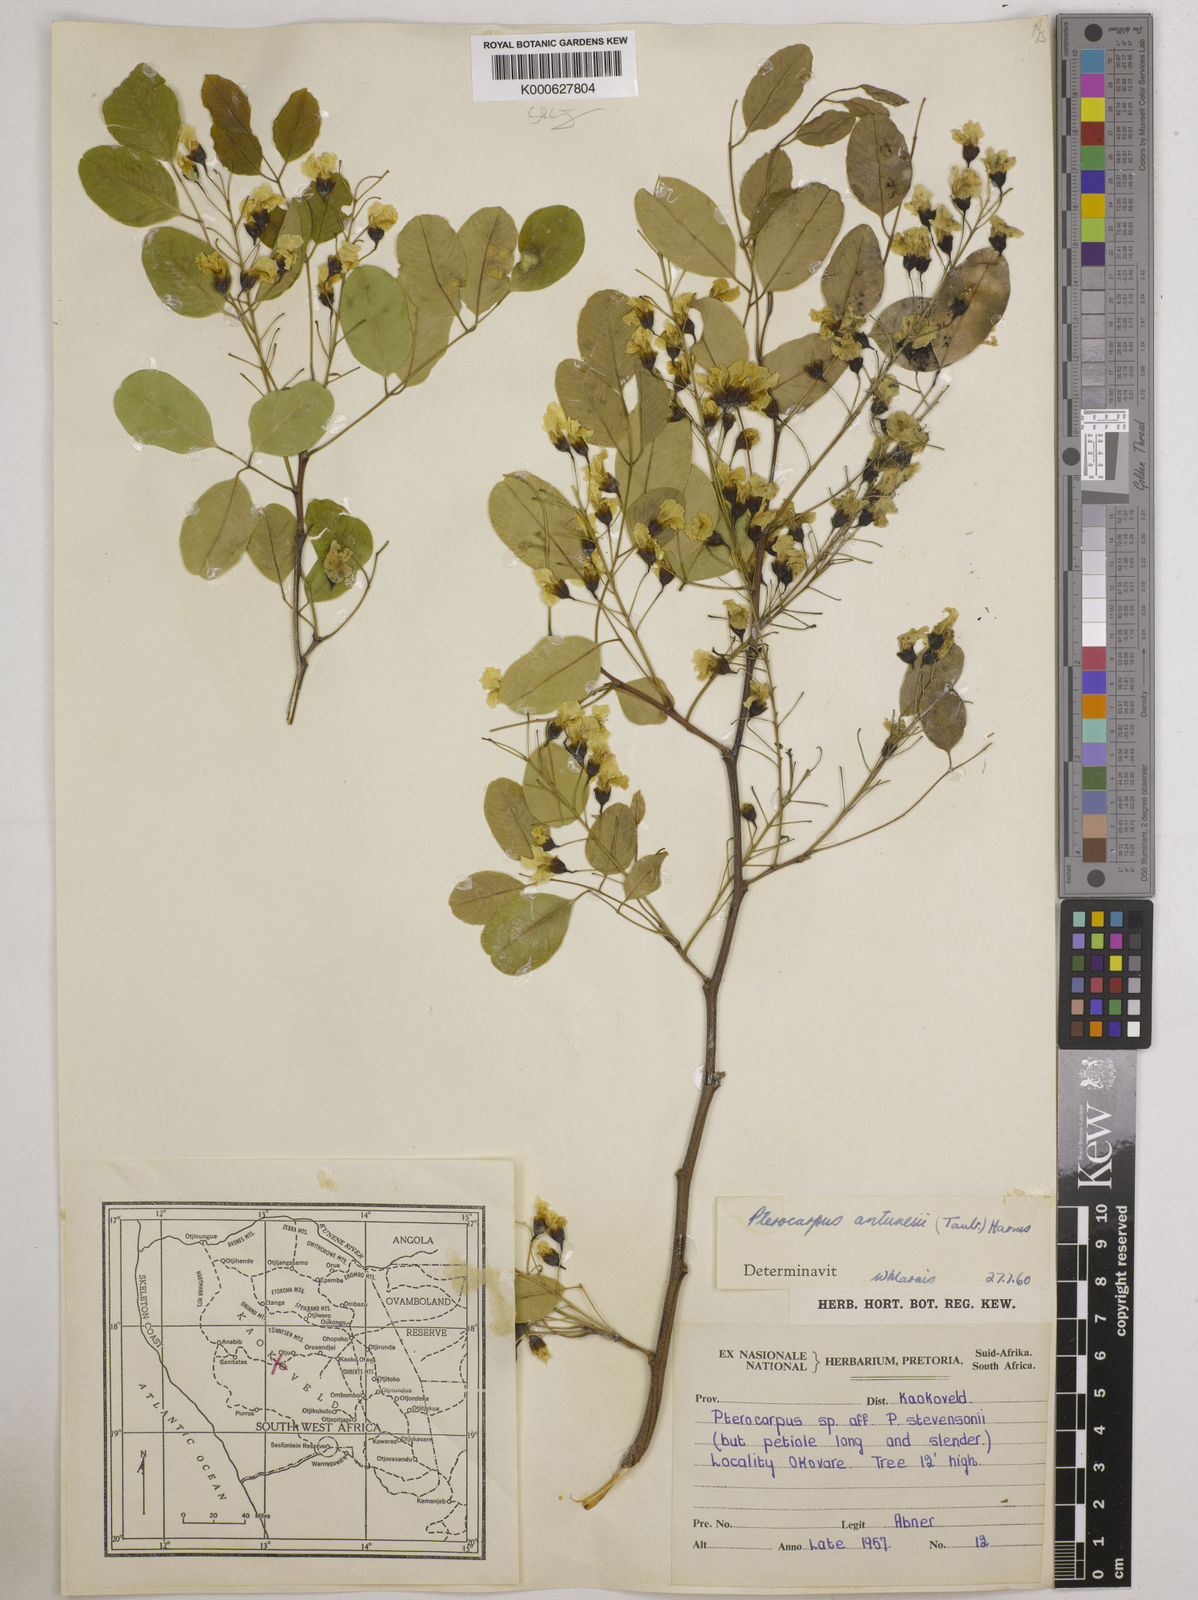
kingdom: Plantae
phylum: Tracheophyta
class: Magnoliopsida
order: Fabales
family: Fabaceae
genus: Pterocarpus
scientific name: Pterocarpus lucens
